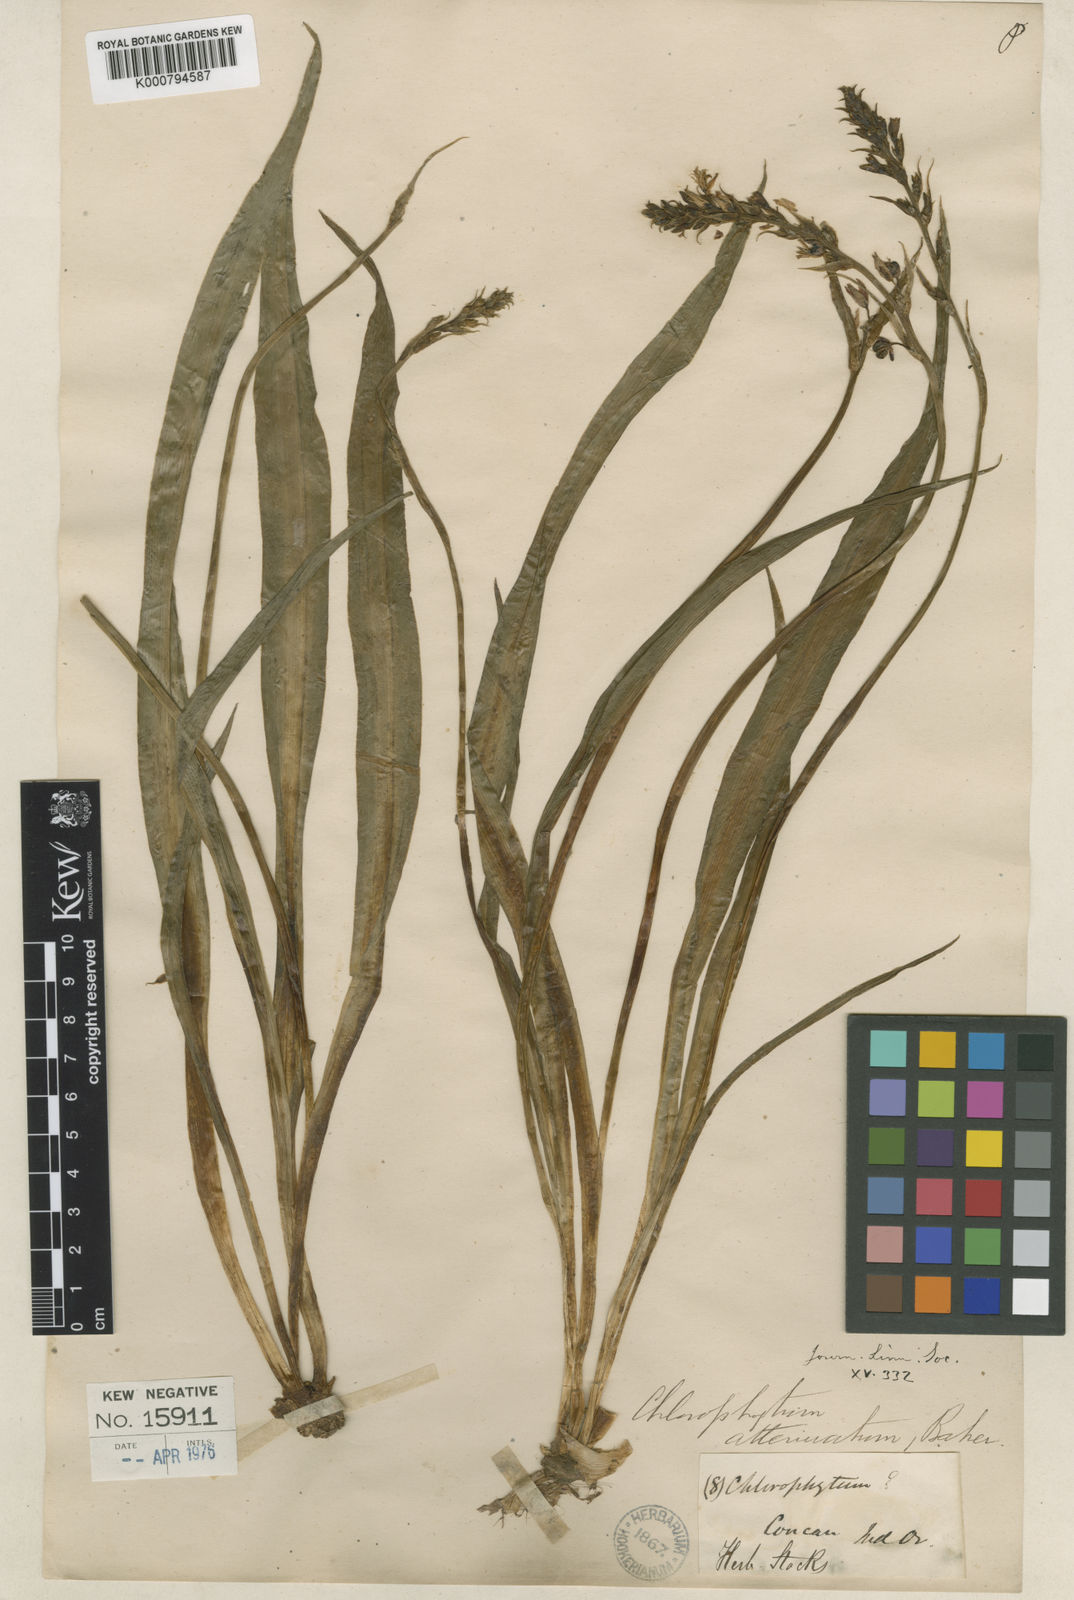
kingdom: Plantae
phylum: Tracheophyta
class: Liliopsida
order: Asparagales
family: Asparagaceae
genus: Chlorophytum
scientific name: Chlorophytum indicum
